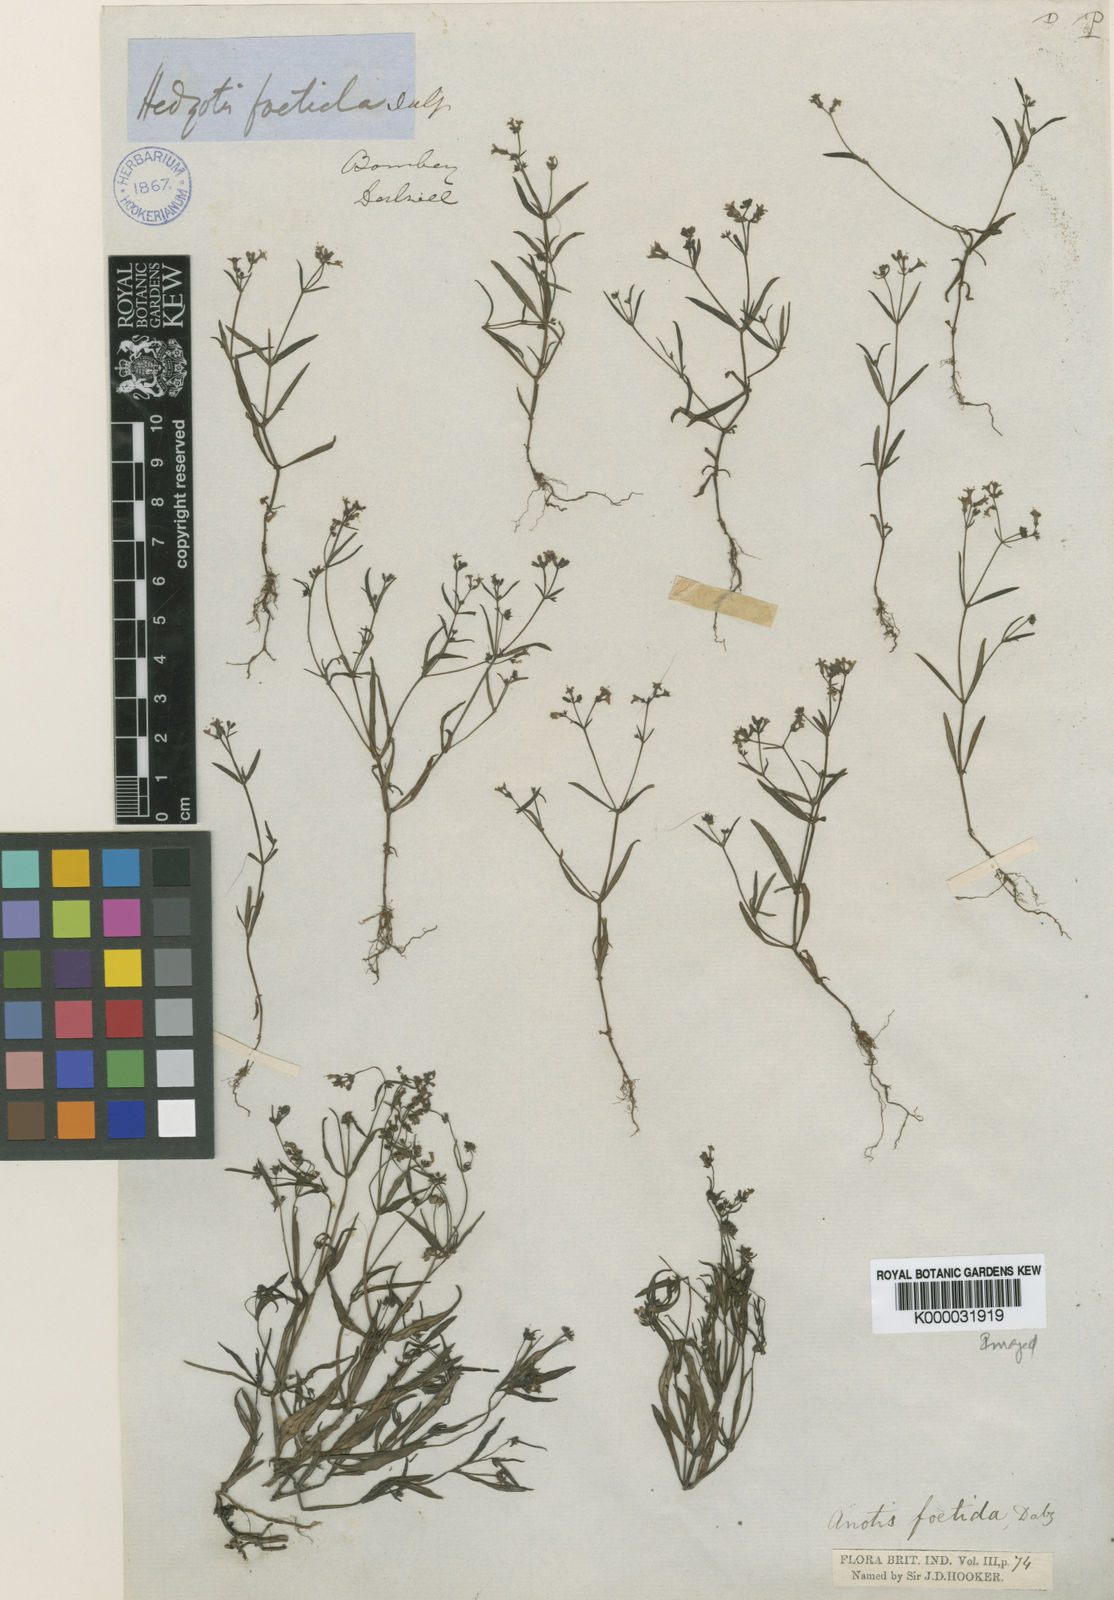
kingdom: Plantae
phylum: Tracheophyta
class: Magnoliopsida
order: Gentianales
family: Rubiaceae
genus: Neanotis
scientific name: Neanotis carnosa
